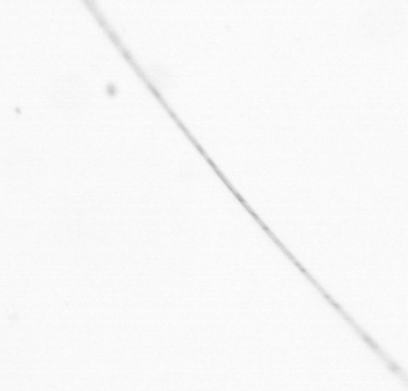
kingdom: Animalia
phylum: Chaetognatha
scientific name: Chaetognatha
